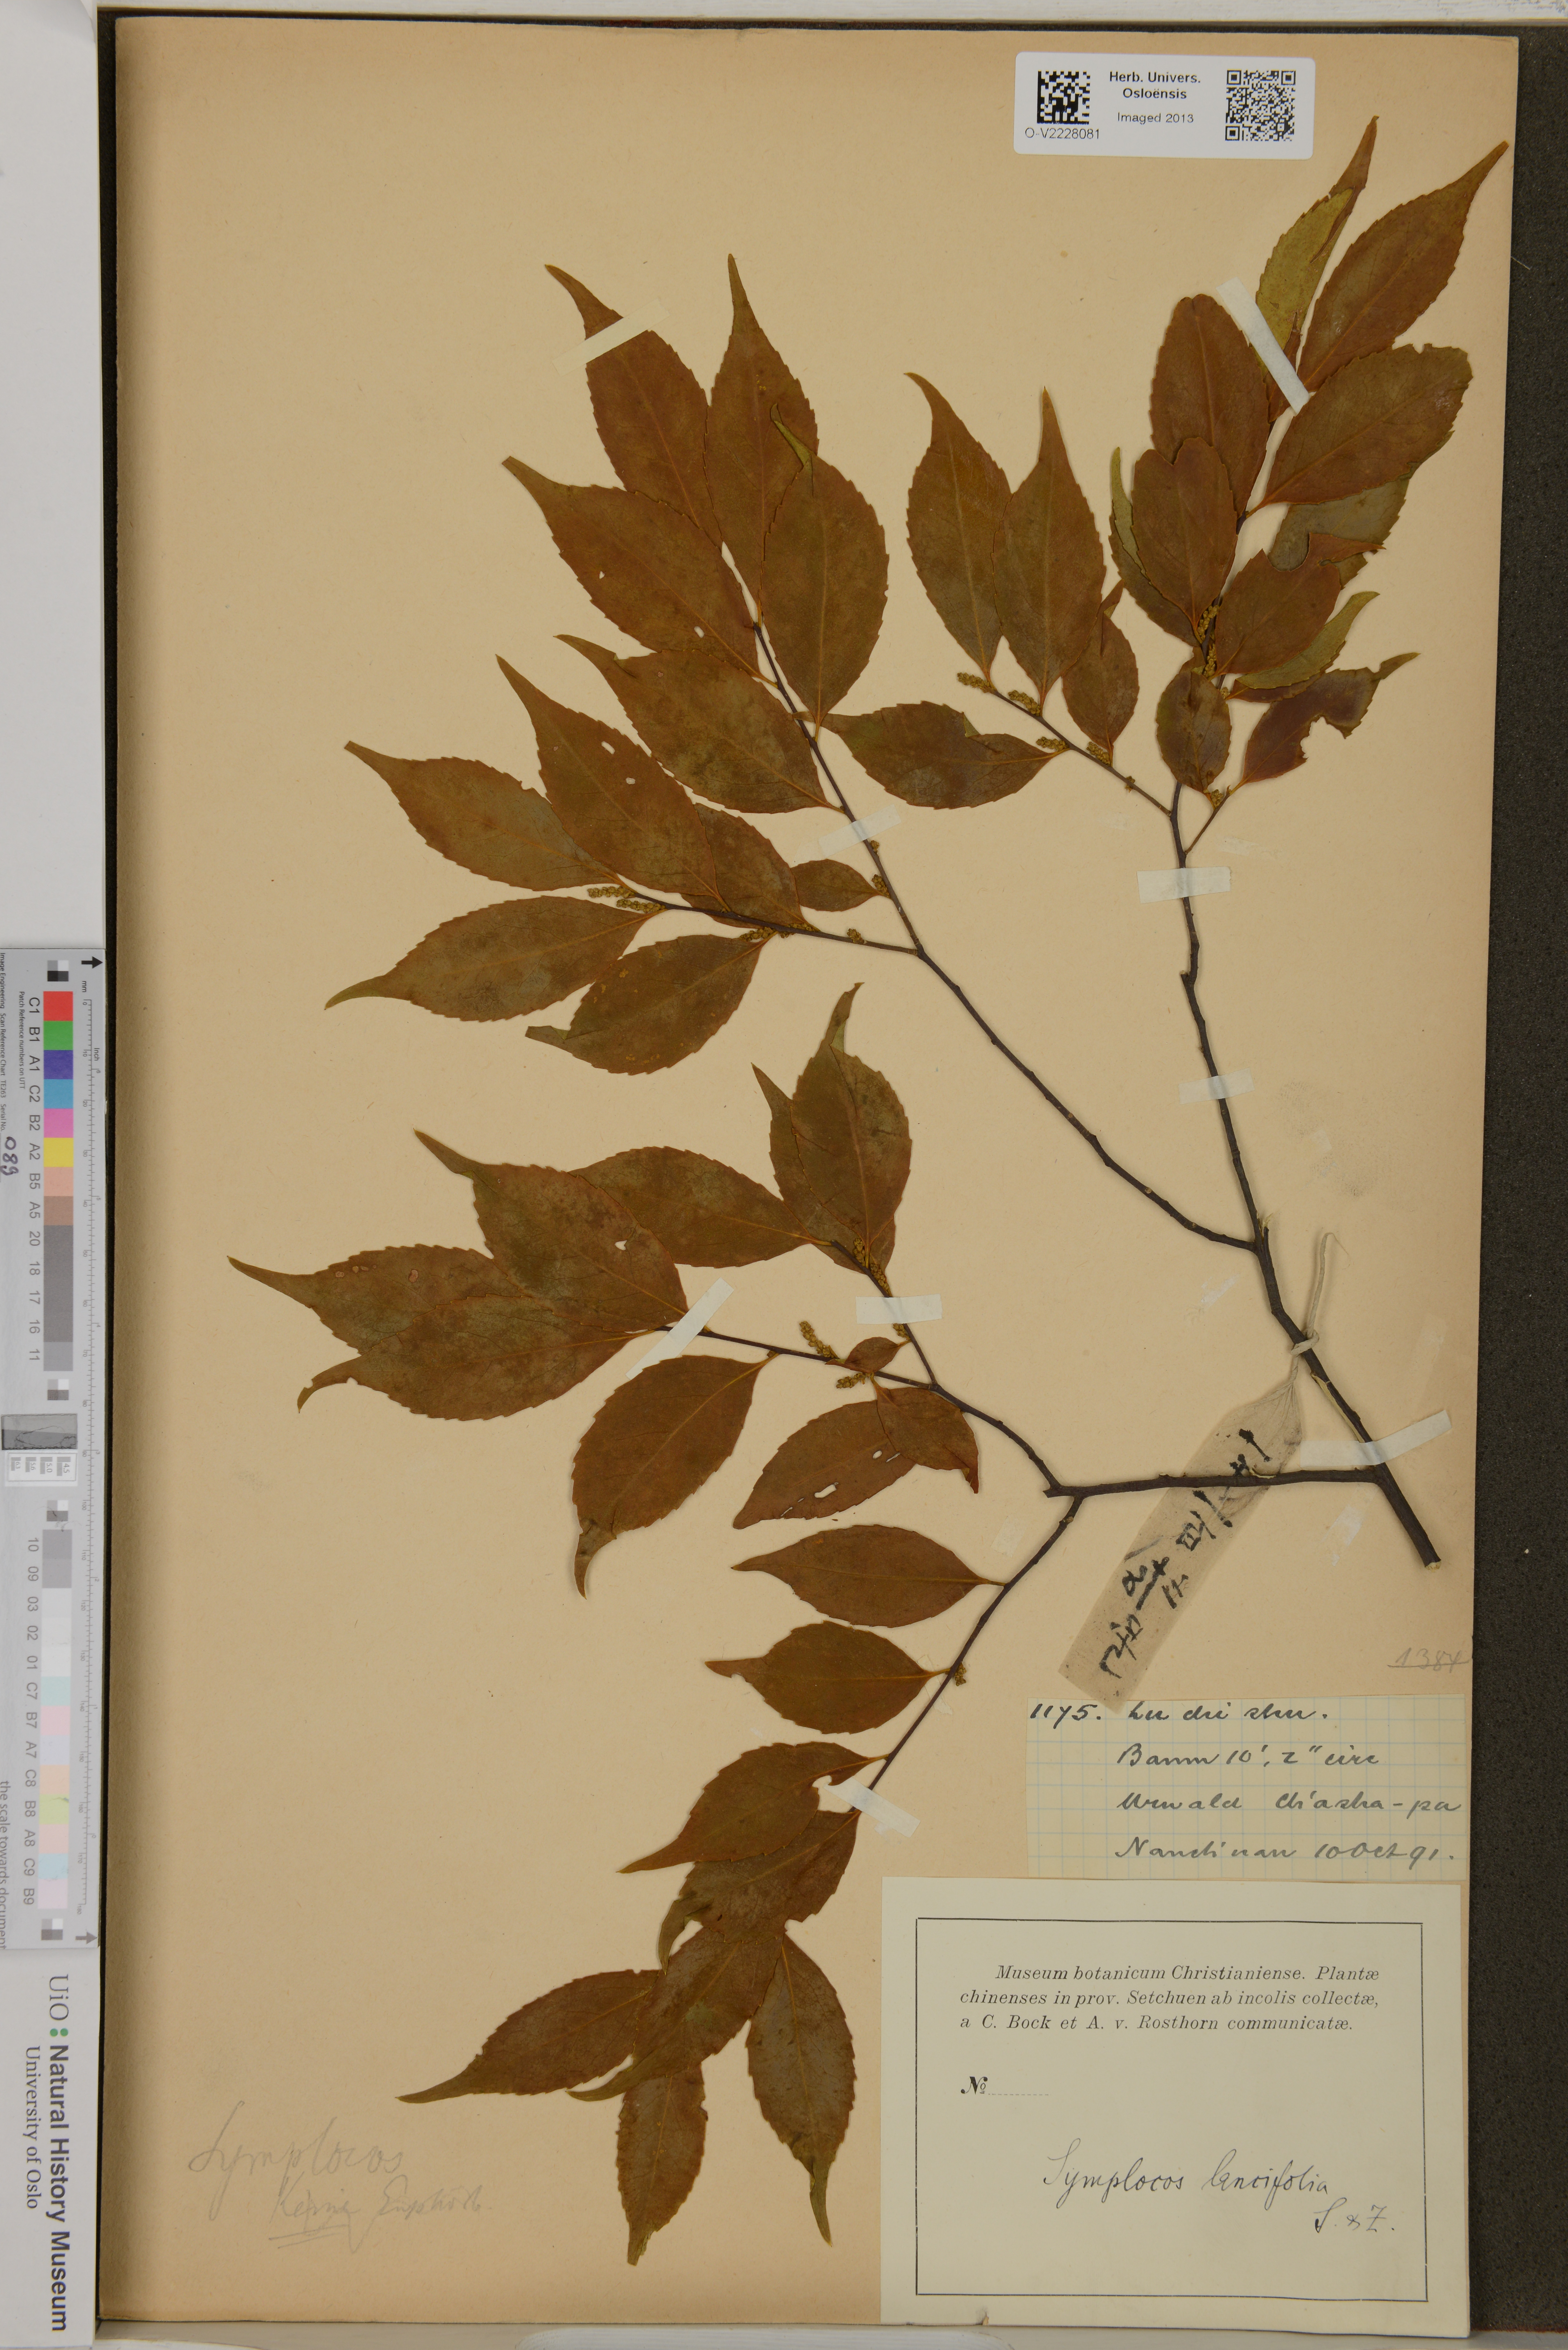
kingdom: Plantae
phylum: Tracheophyta
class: Magnoliopsida
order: Ericales
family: Symplocaceae
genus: Symplocos
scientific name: Symplocos lancifolia
